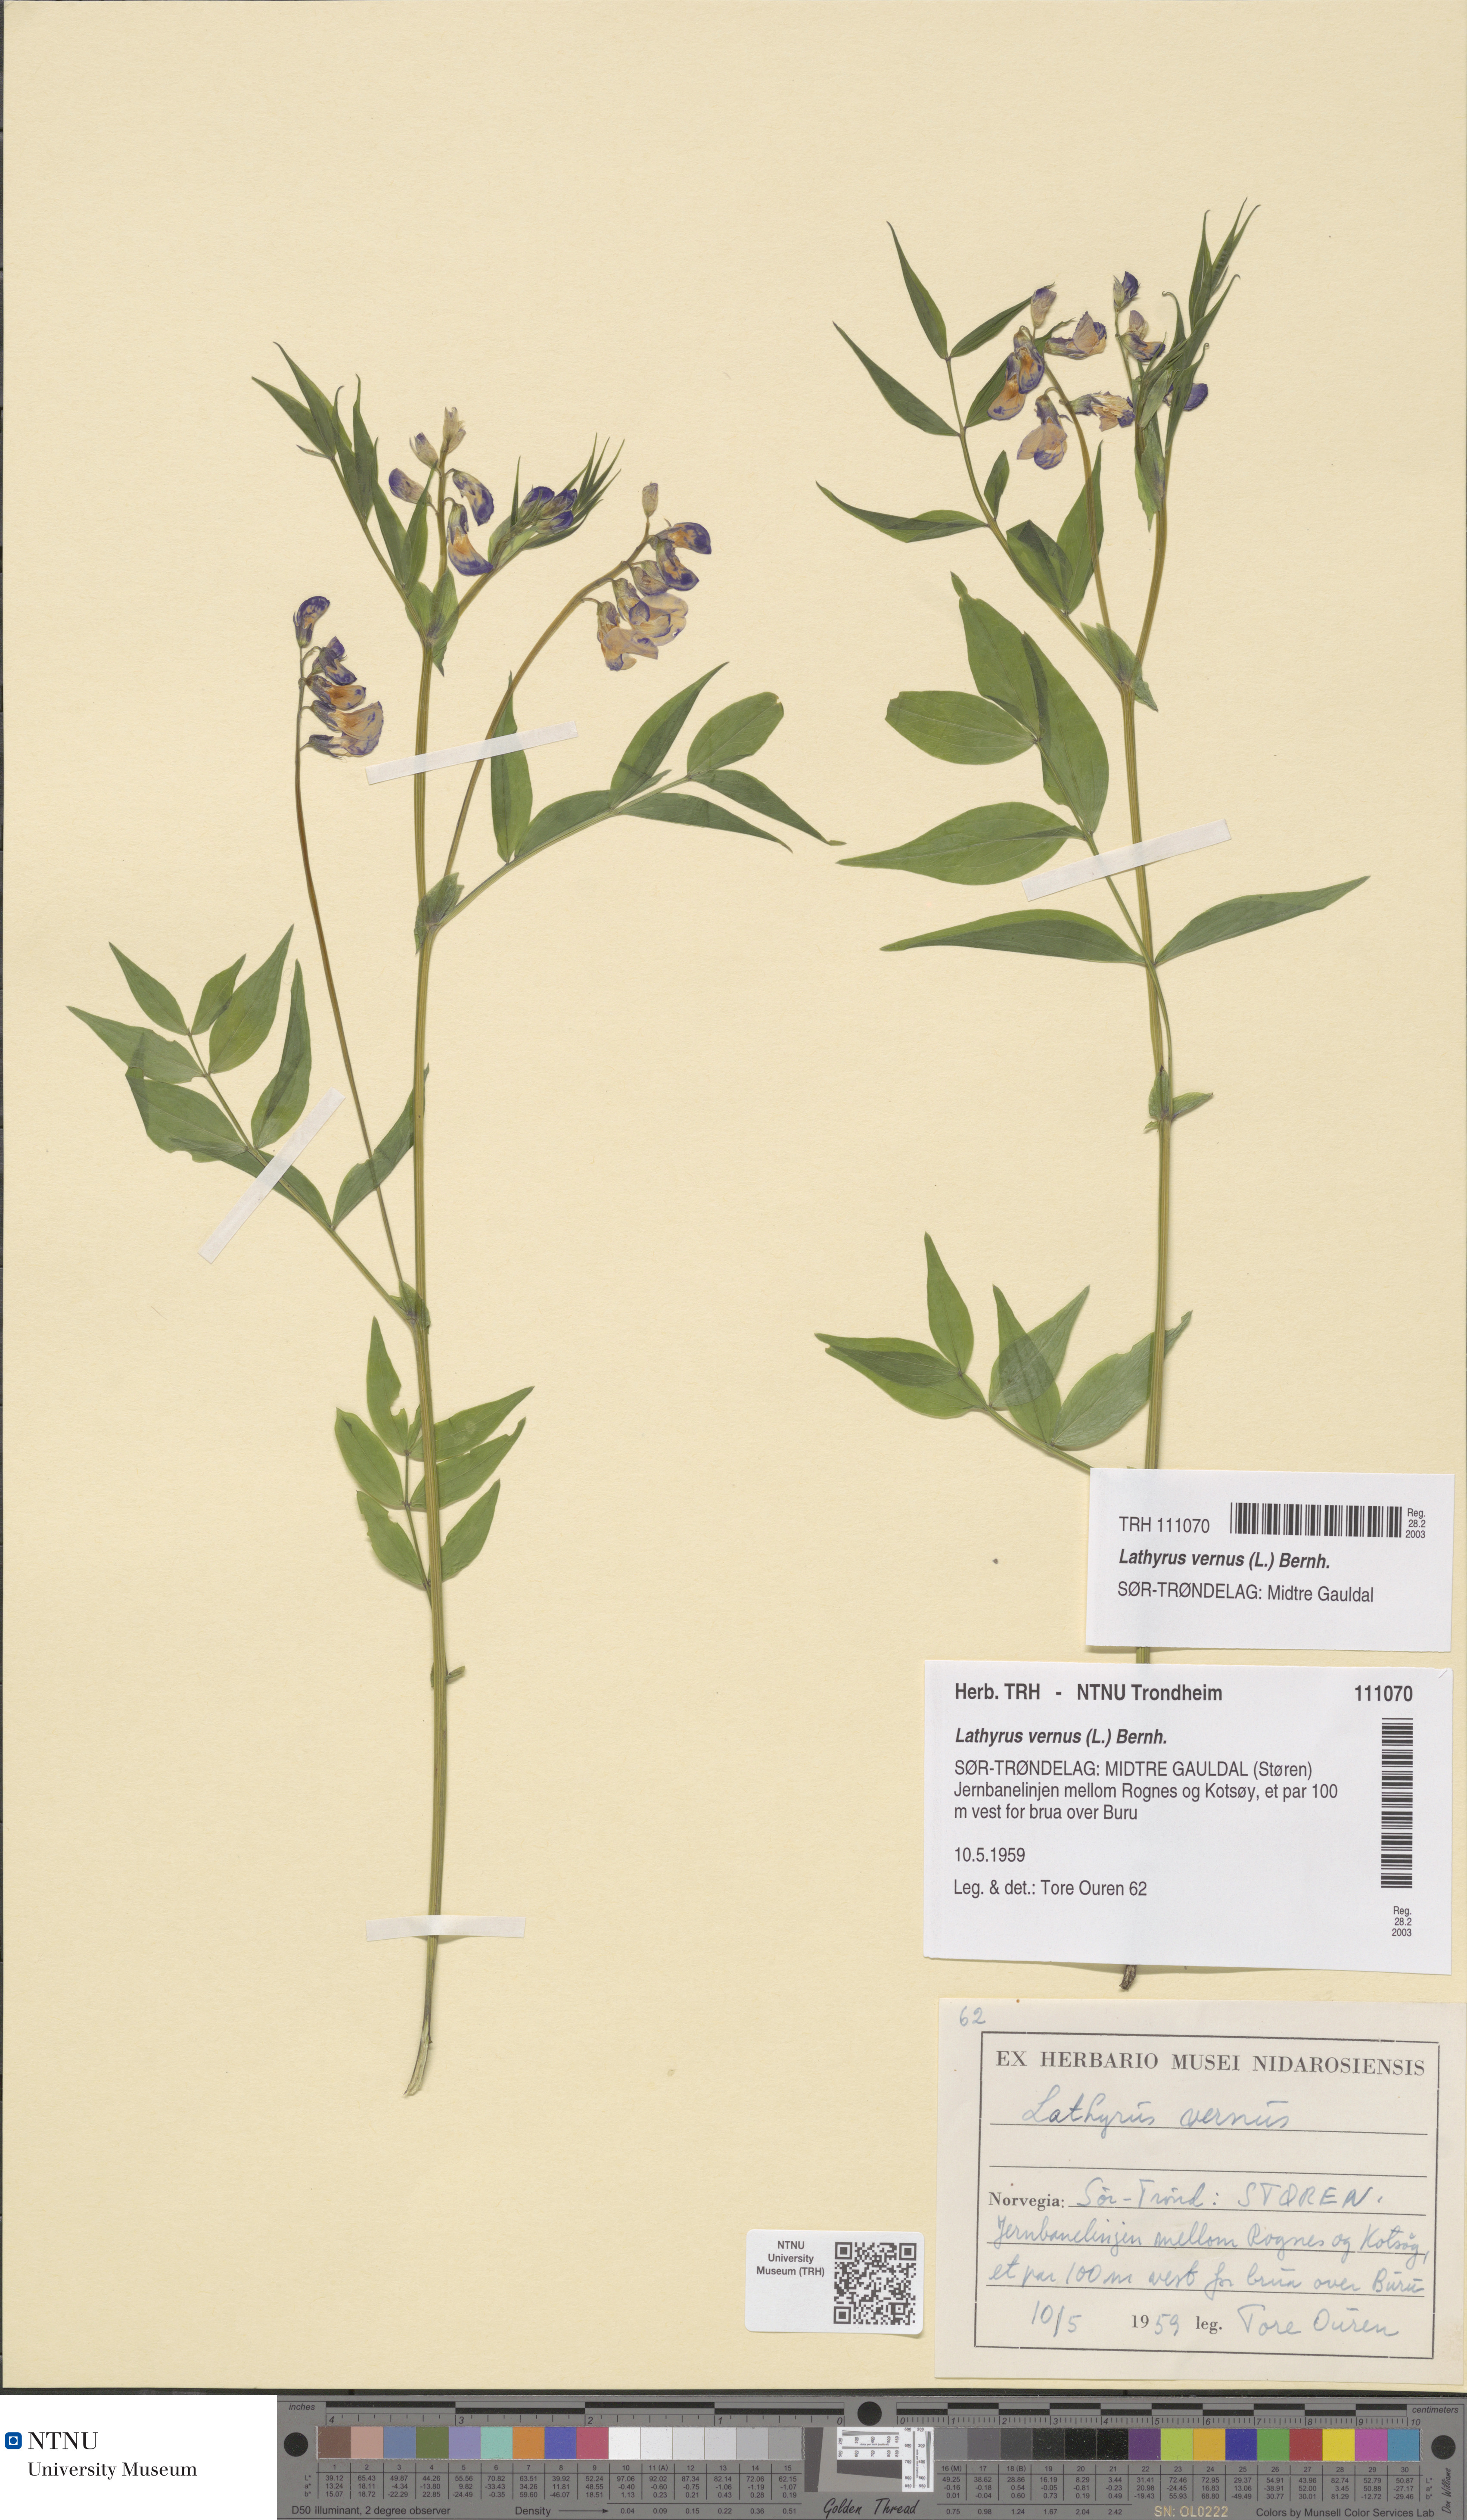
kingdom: Plantae
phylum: Tracheophyta
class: Magnoliopsida
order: Fabales
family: Fabaceae
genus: Lathyrus
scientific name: Lathyrus vernus
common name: Spring pea
